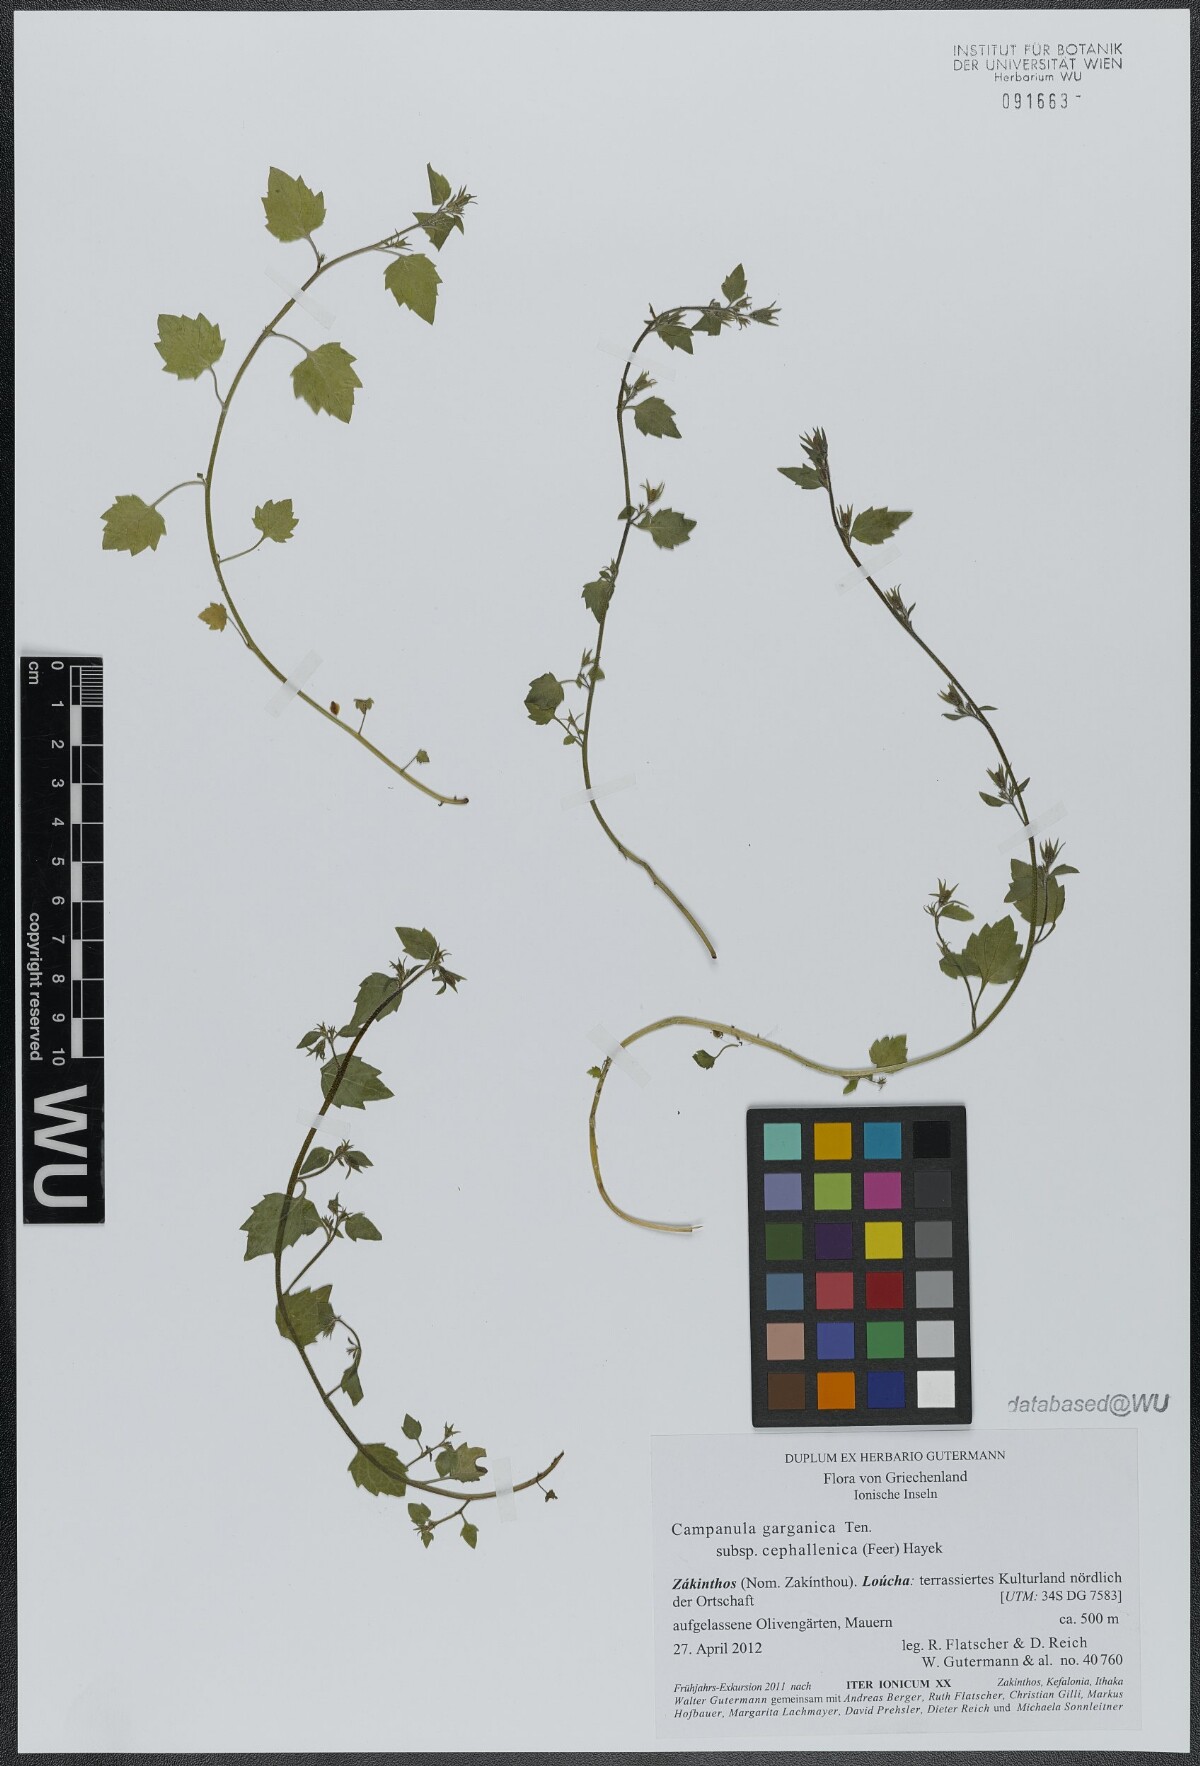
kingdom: Plantae
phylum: Tracheophyta
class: Magnoliopsida
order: Asterales
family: Campanulaceae
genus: Campanula
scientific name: Campanula garganica
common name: Adriatic bellflower
